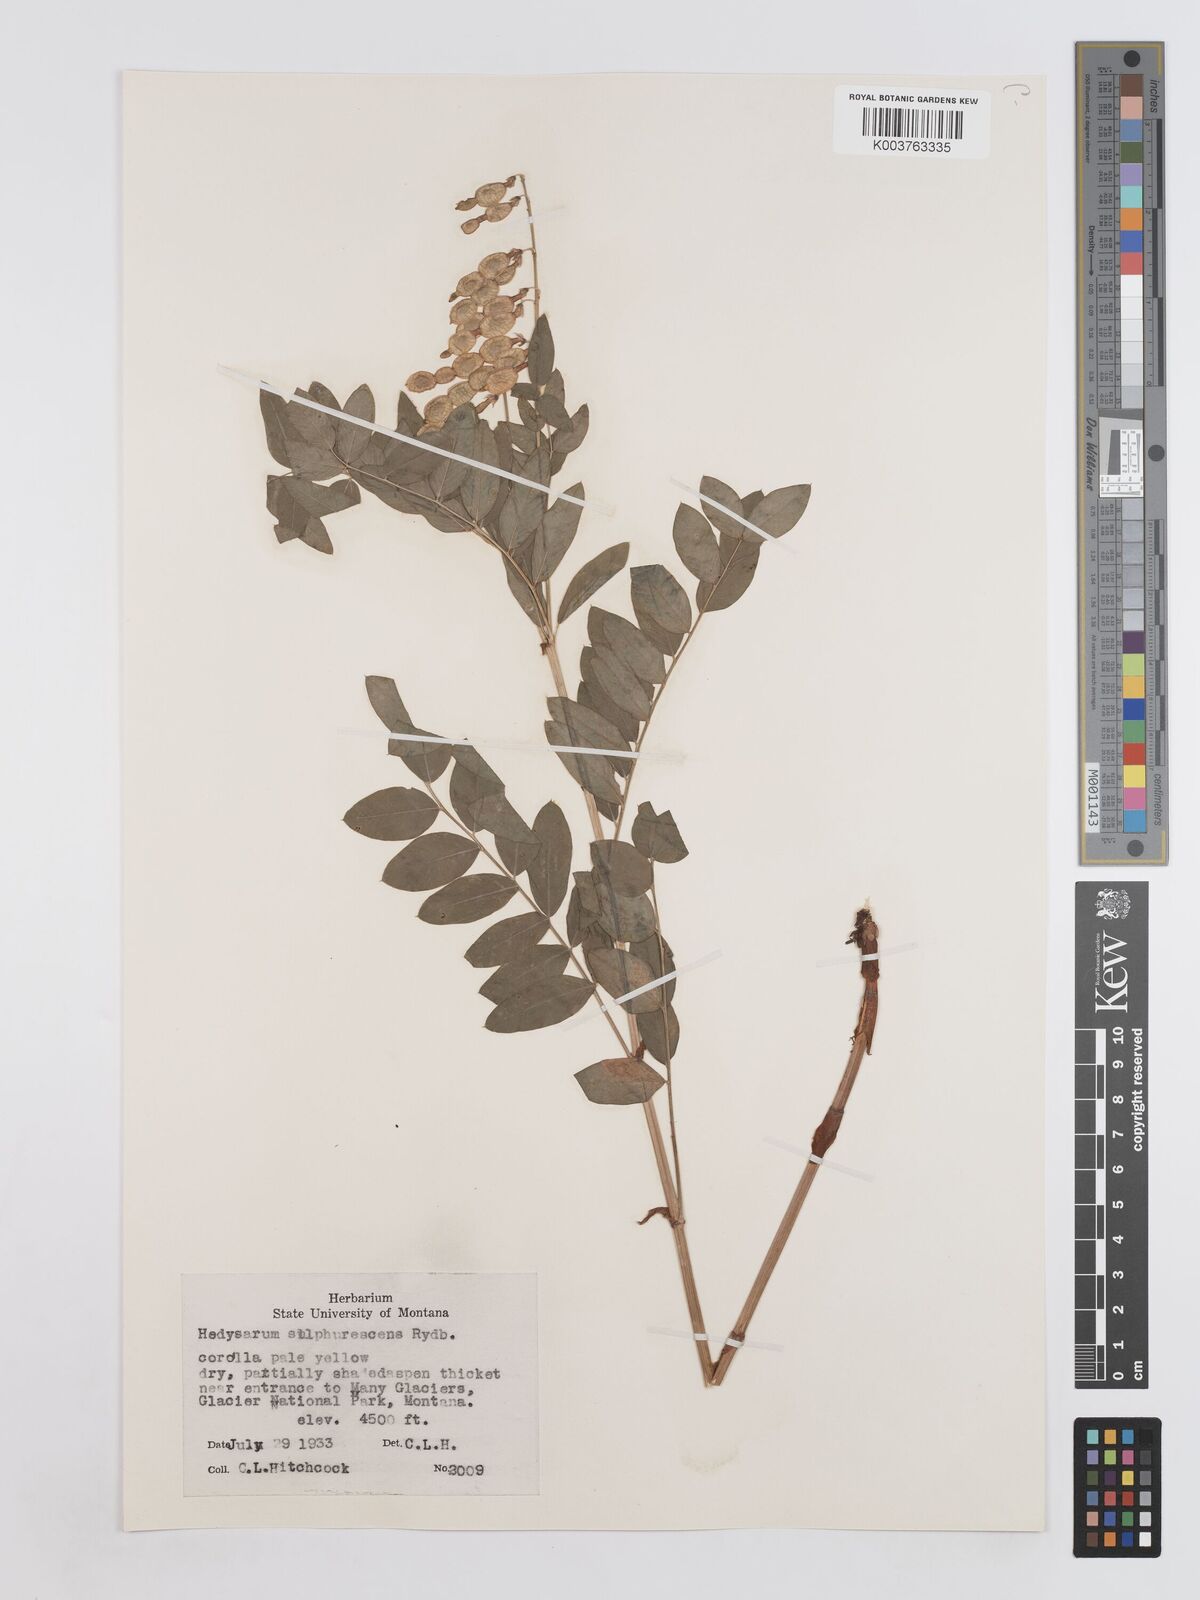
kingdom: Plantae
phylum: Tracheophyta
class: Magnoliopsida
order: Fabales
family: Fabaceae
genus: Hedysarum
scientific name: Hedysarum sulphurescens
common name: Sulphur hedysarum
